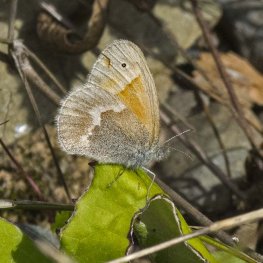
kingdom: Animalia
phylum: Arthropoda
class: Insecta
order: Lepidoptera
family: Nymphalidae
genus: Coenonympha
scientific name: Coenonympha tullia
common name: Large Heath
